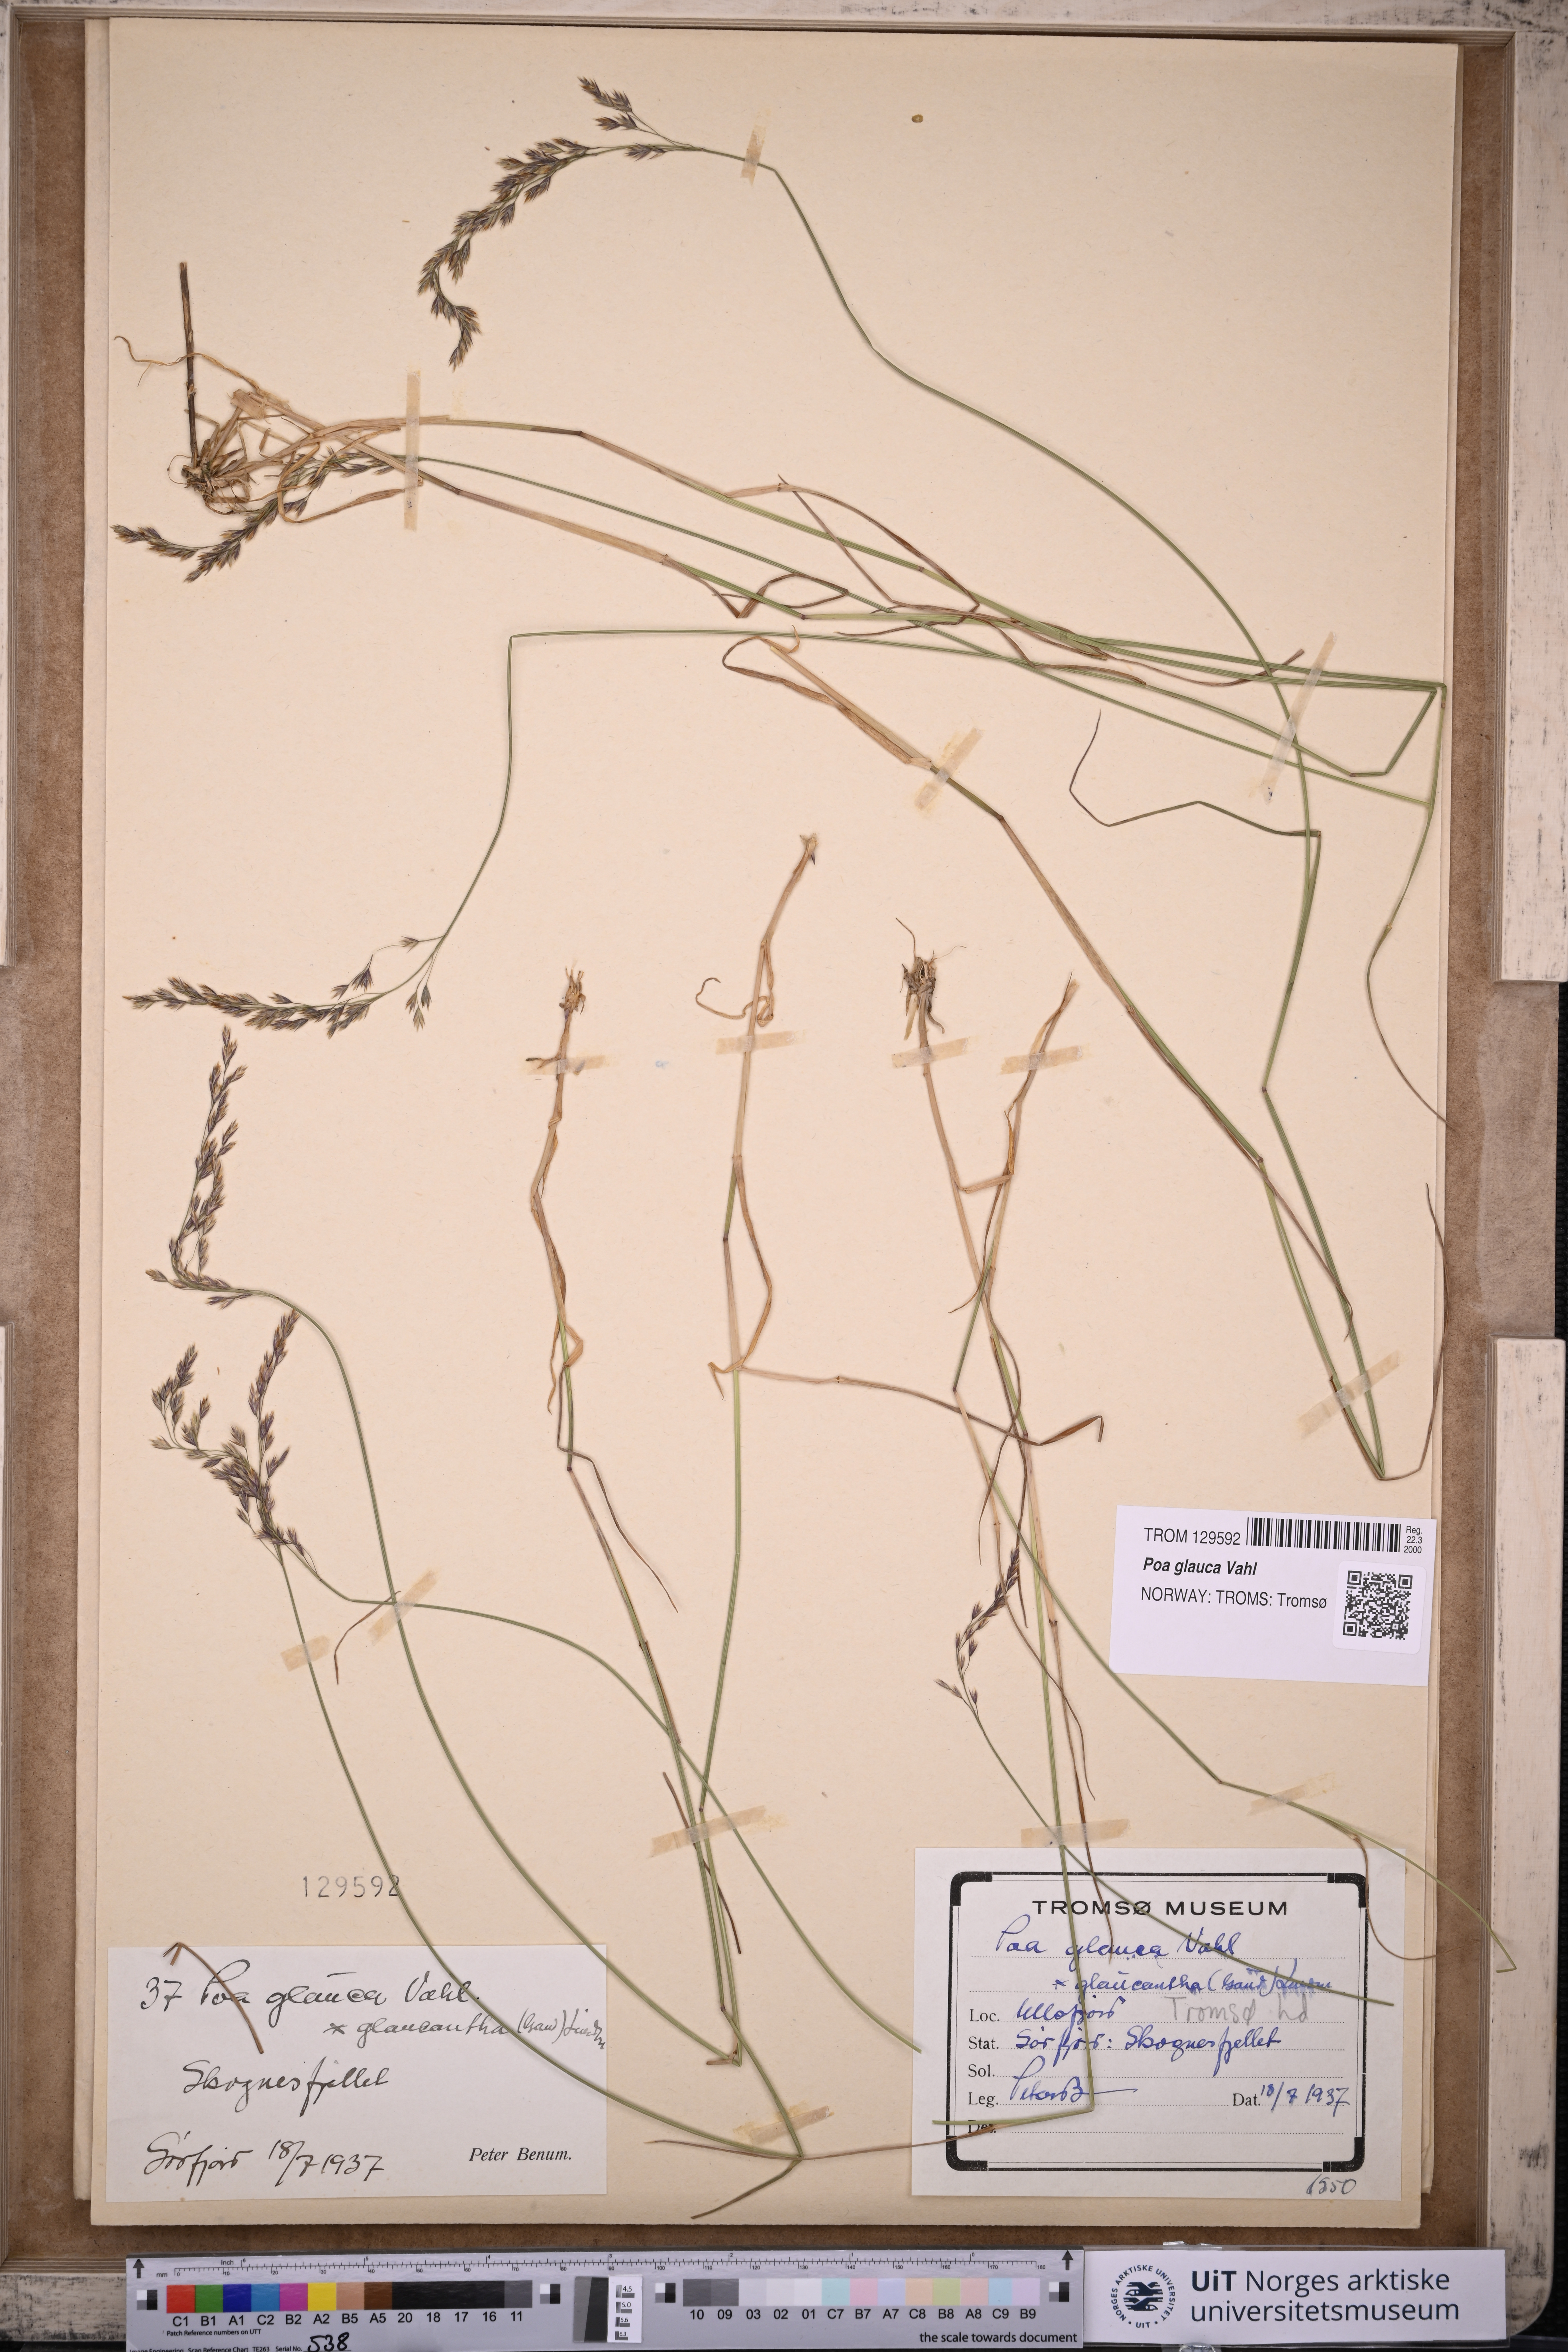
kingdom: Plantae
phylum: Tracheophyta
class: Liliopsida
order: Poales
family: Poaceae
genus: Poa
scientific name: Poa glauca
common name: Glaucous bluegrass
